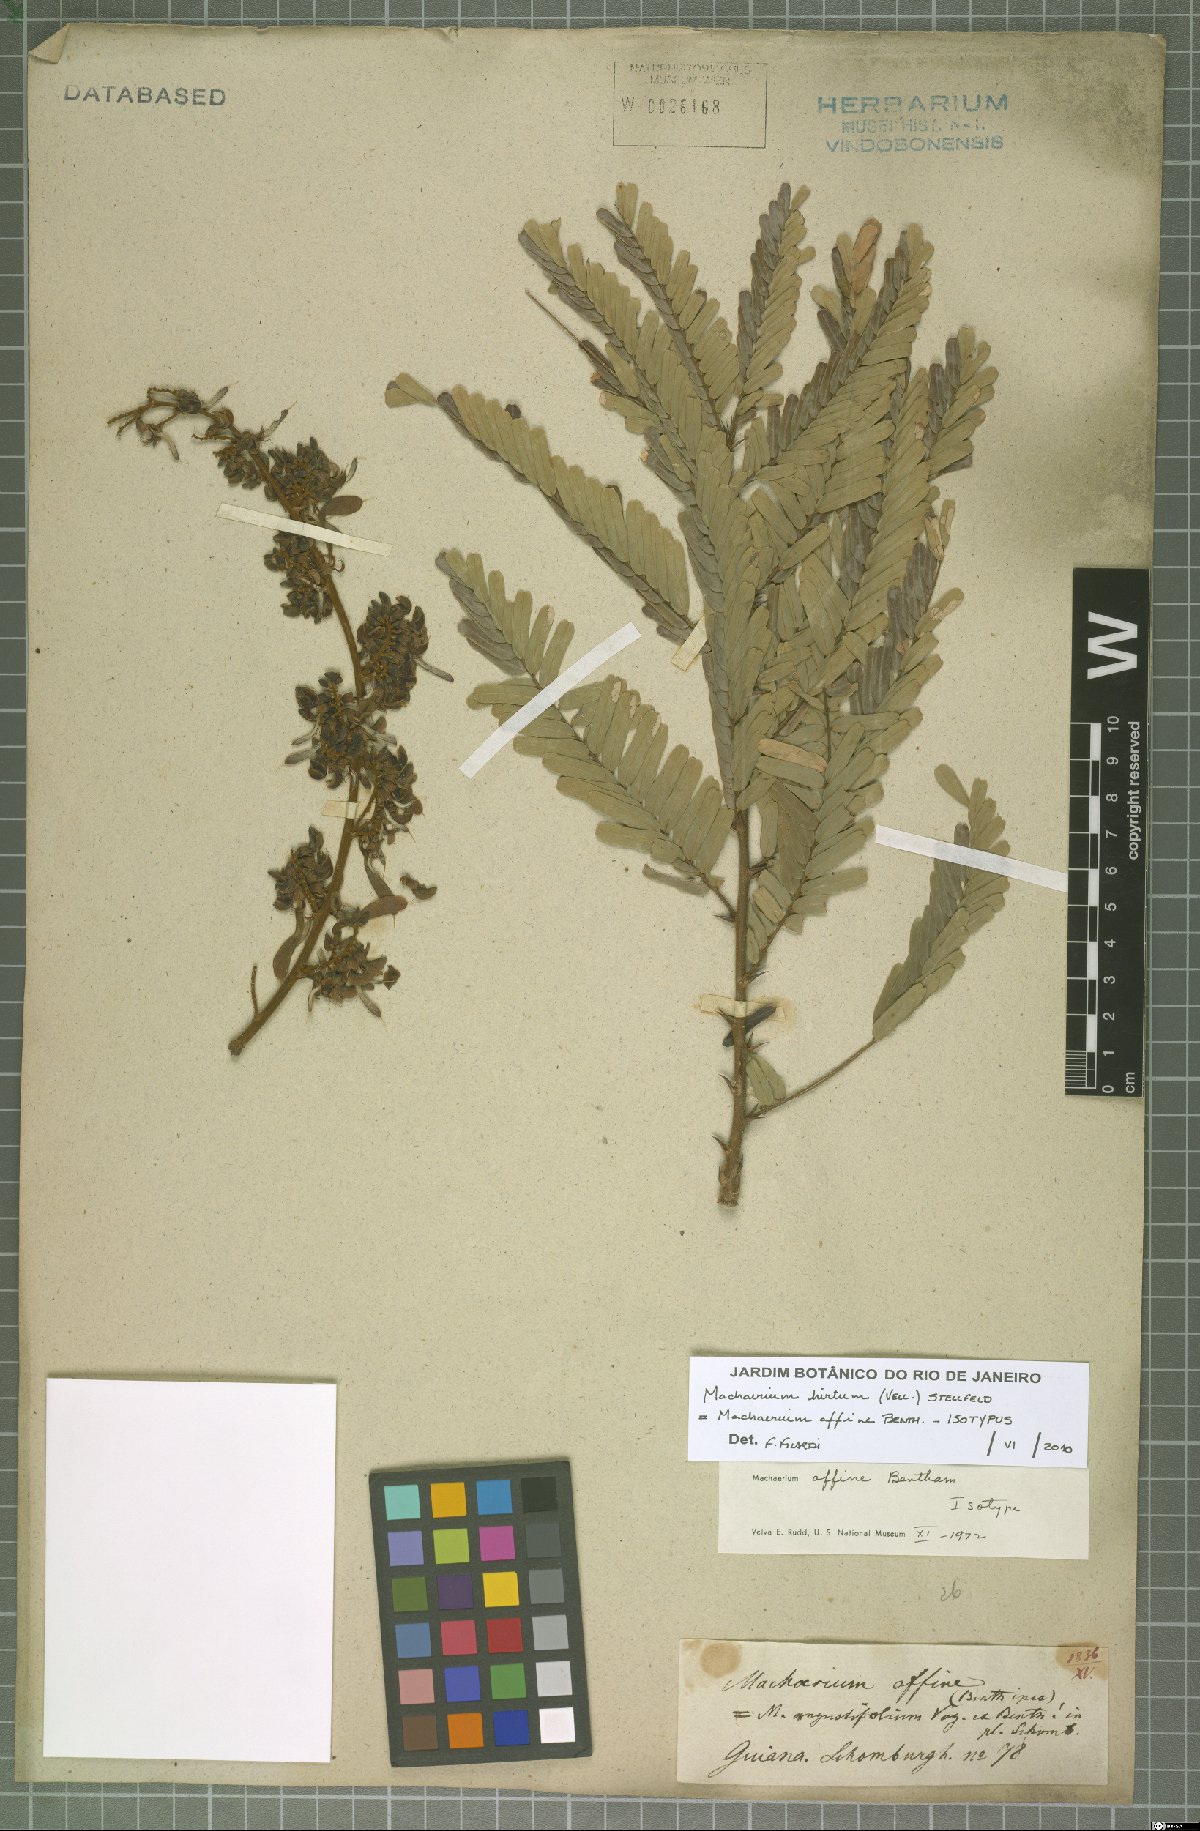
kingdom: Plantae
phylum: Tracheophyta
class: Magnoliopsida
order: Fabales
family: Fabaceae
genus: Machaerium
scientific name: Machaerium hirtum
